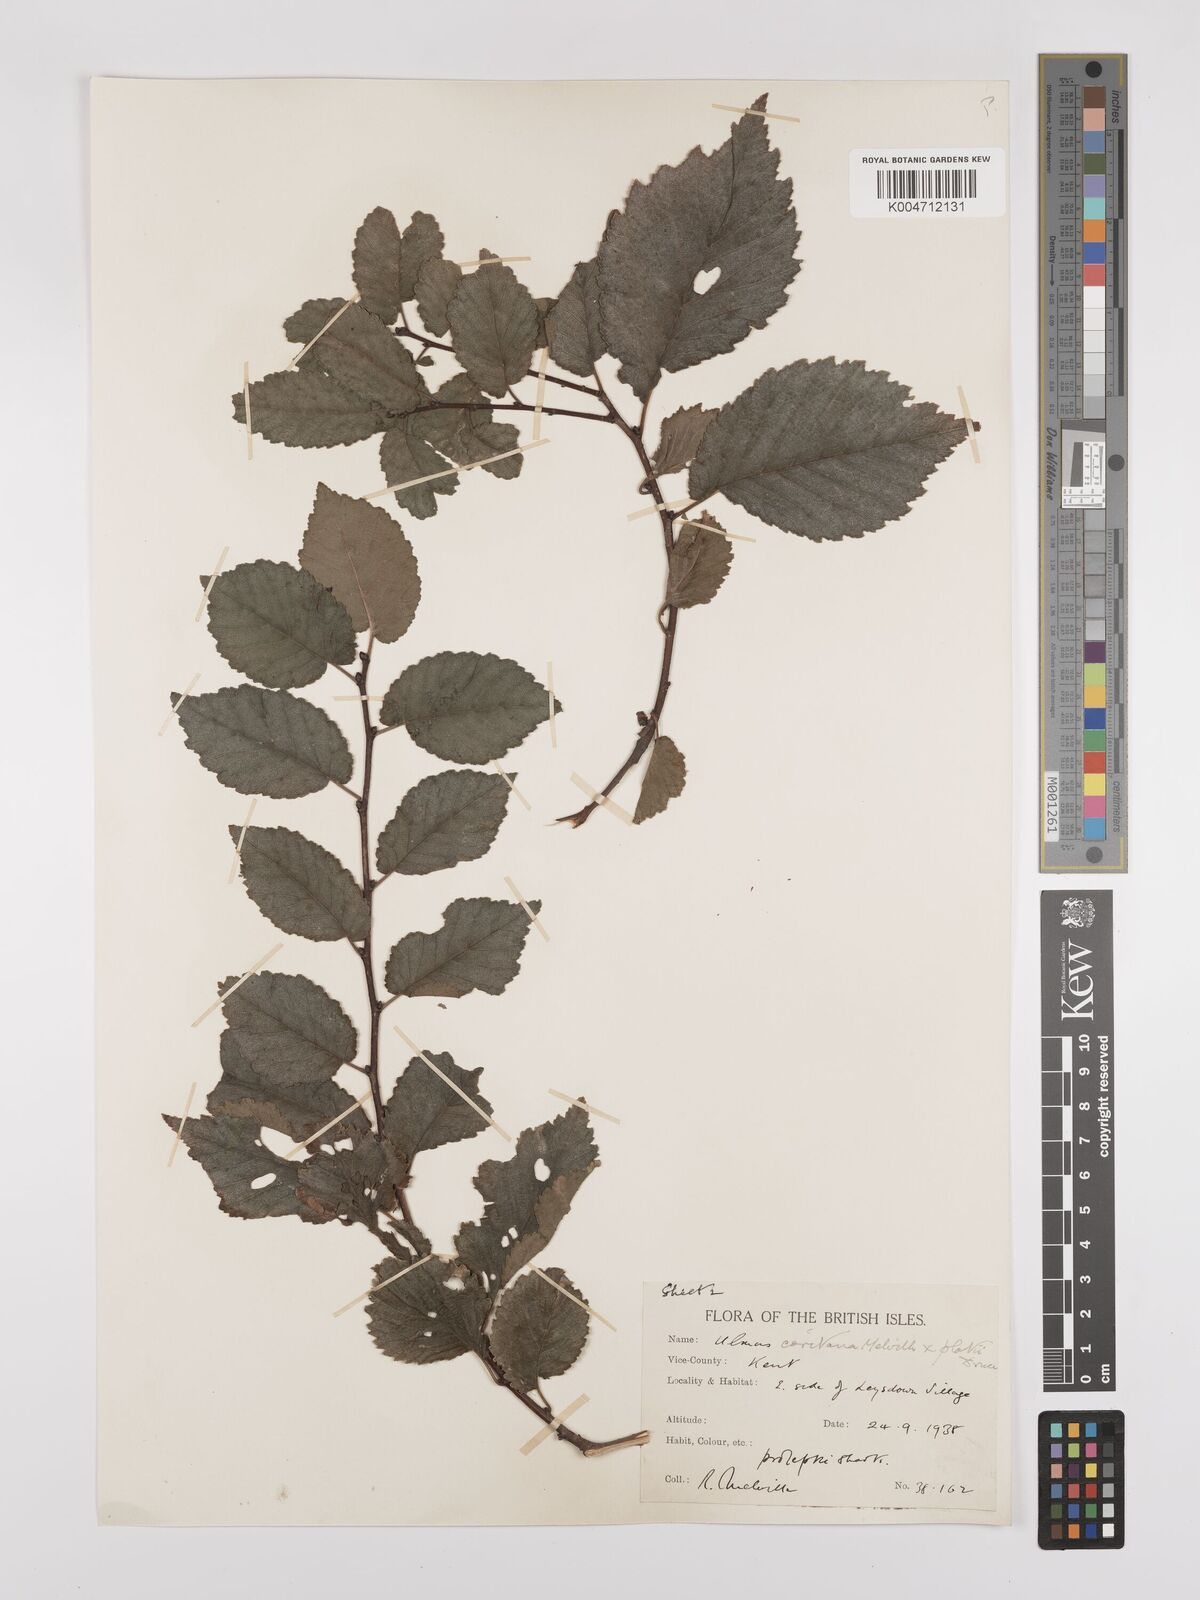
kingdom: Plantae
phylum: Tracheophyta
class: Magnoliopsida
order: Rosales
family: Ulmaceae
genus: Ulmus
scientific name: Ulmus minor
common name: Small-leaved elm
